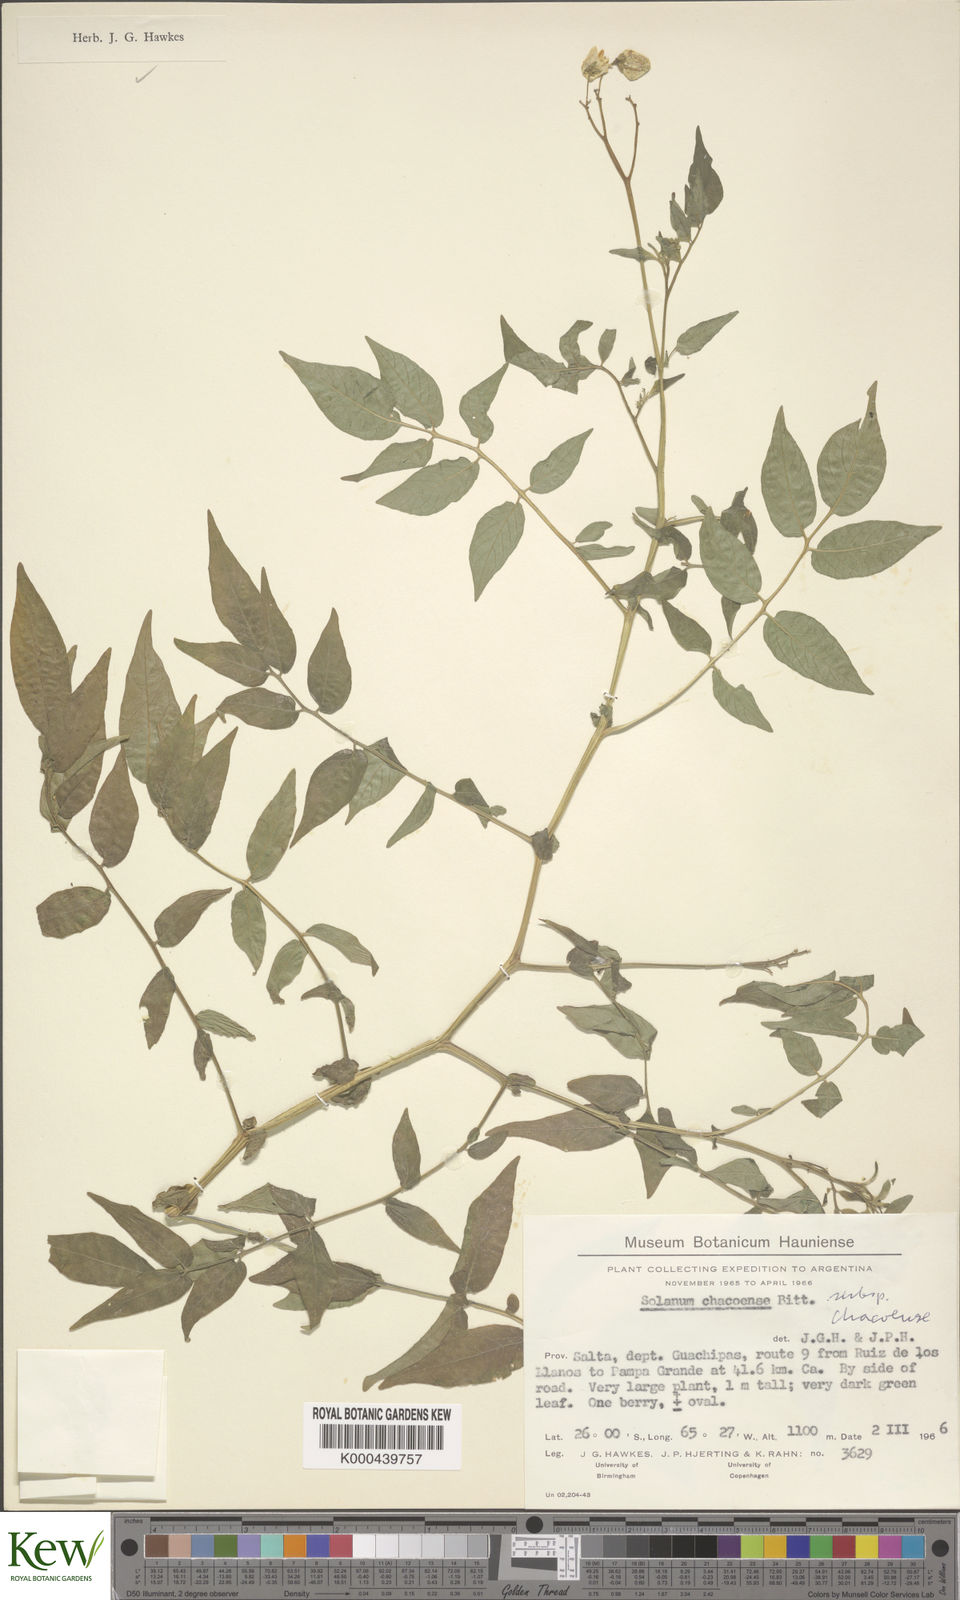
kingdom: Plantae
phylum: Tracheophyta
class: Magnoliopsida
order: Solanales
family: Solanaceae
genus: Solanum
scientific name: Solanum chacoense
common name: Chaco potato
